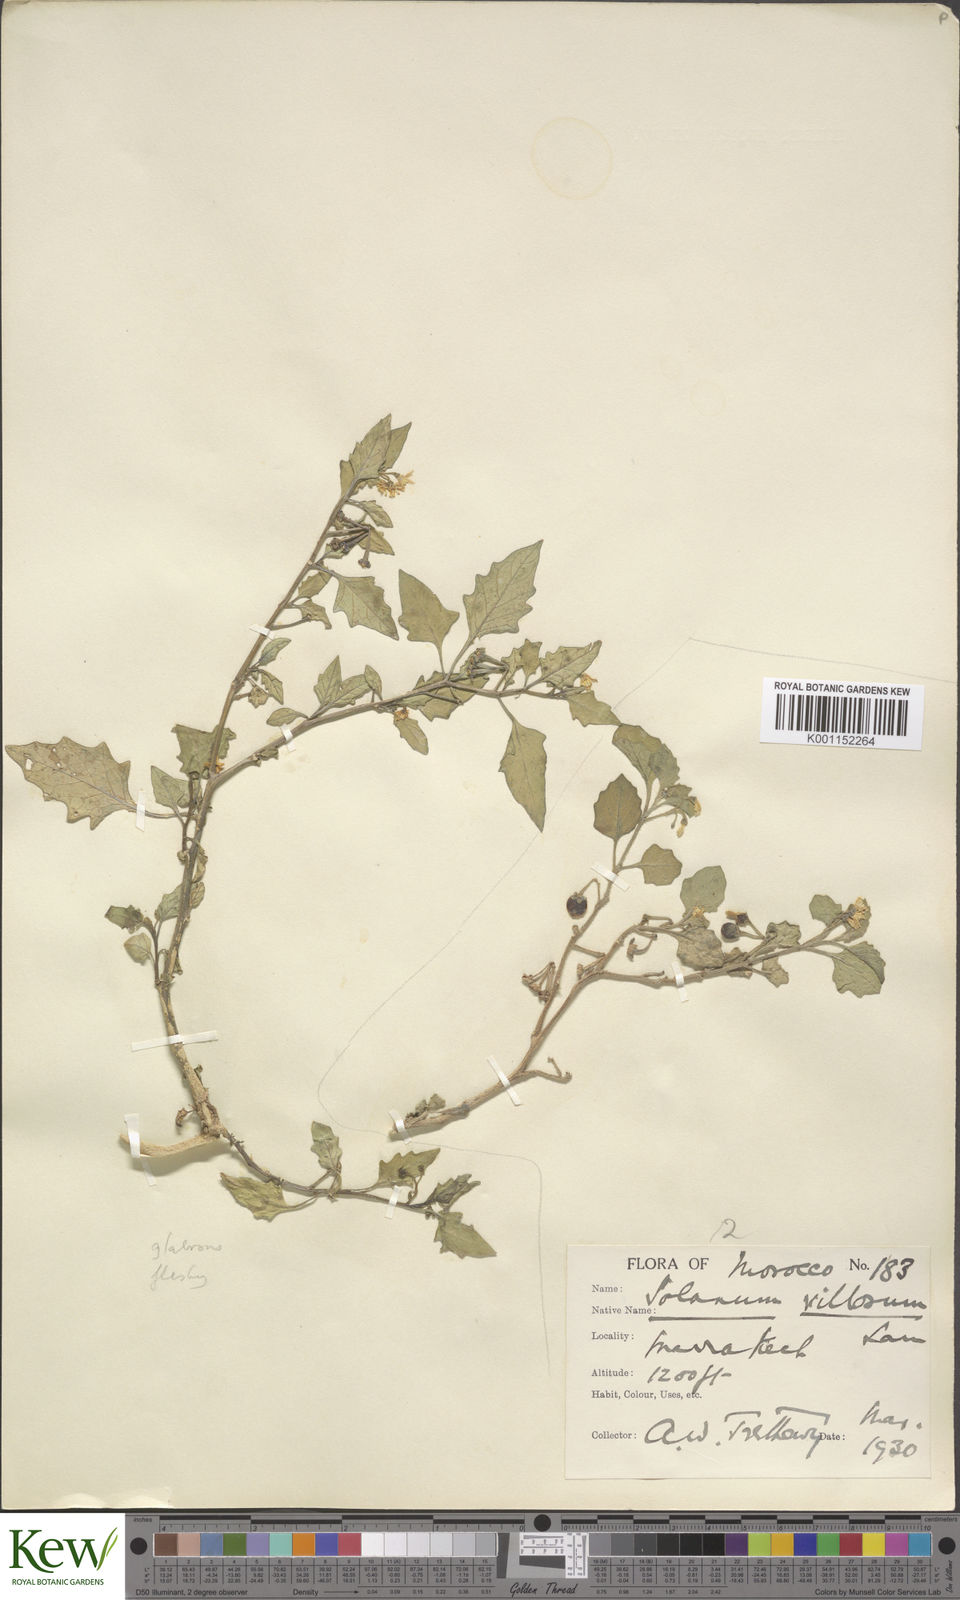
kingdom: Plantae
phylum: Tracheophyta
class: Magnoliopsida
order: Solanales
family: Solanaceae
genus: Solanum
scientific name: Solanum villosum
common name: Red nightshade
